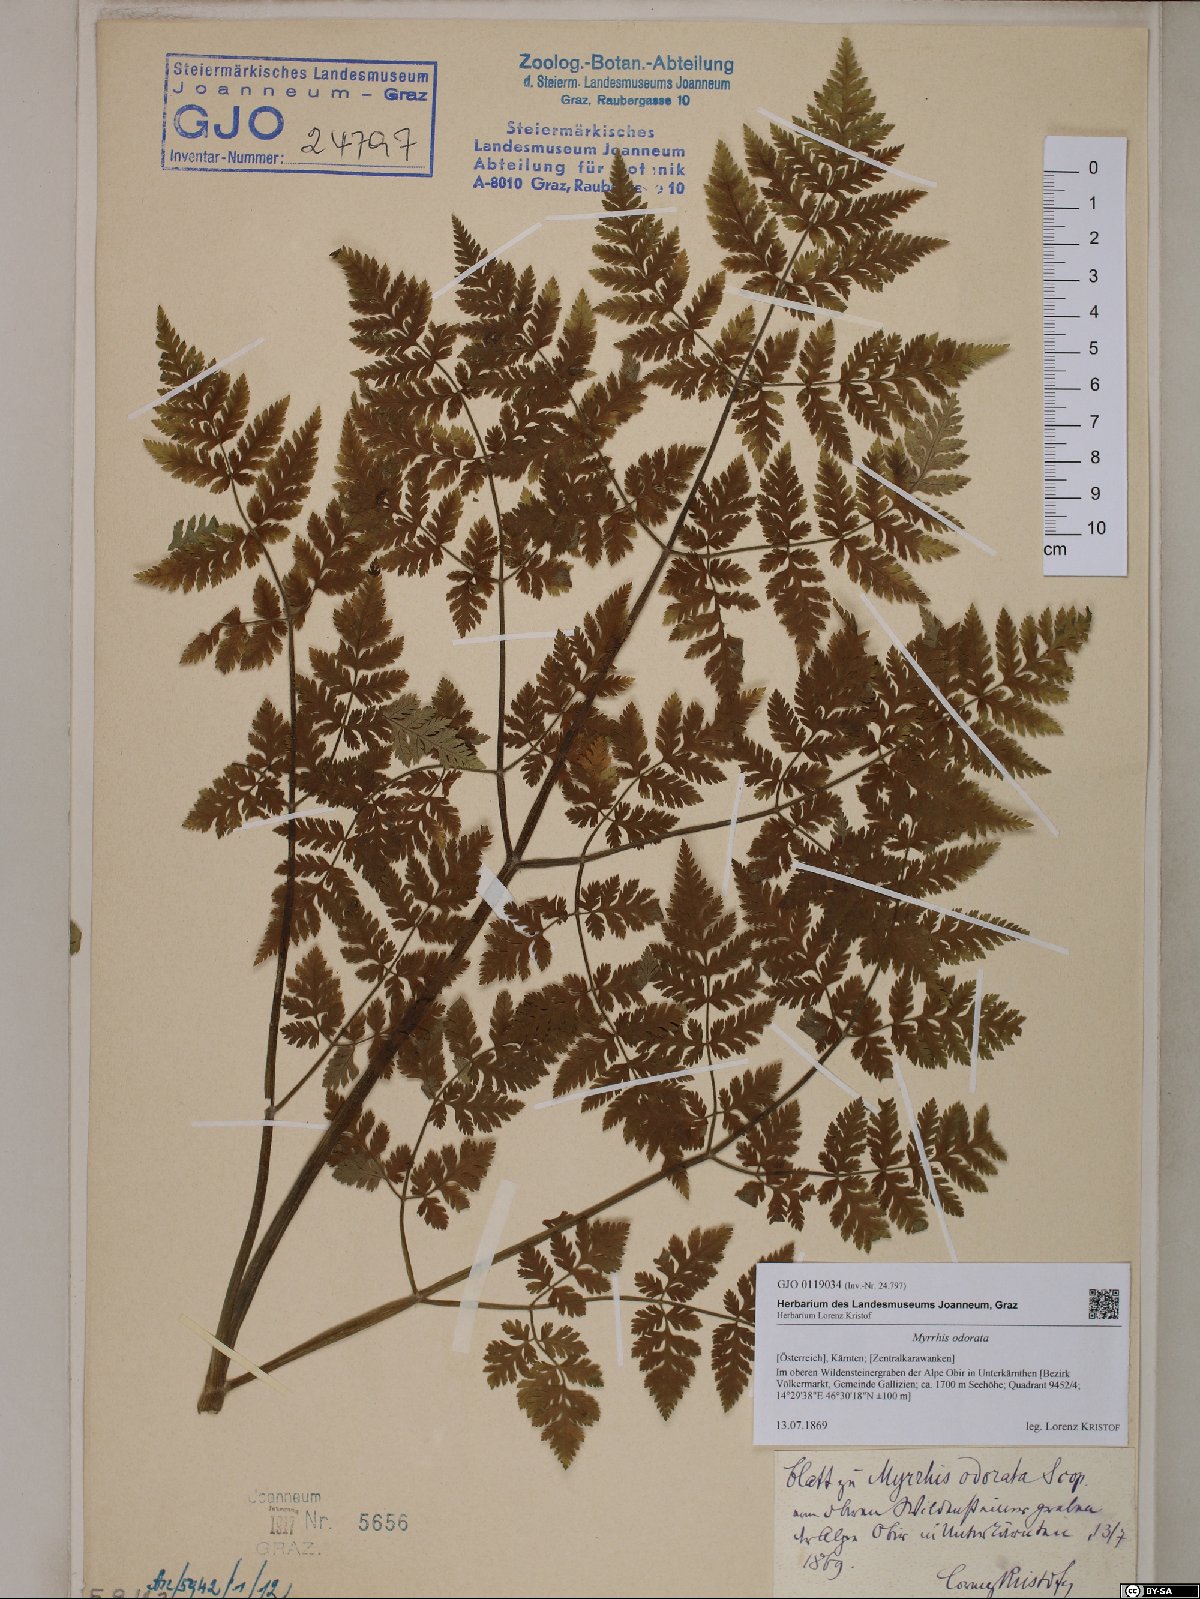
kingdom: Plantae
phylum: Tracheophyta
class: Magnoliopsida
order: Apiales
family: Apiaceae
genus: Myrrhis
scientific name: Myrrhis odorata
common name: Sweet cicely
